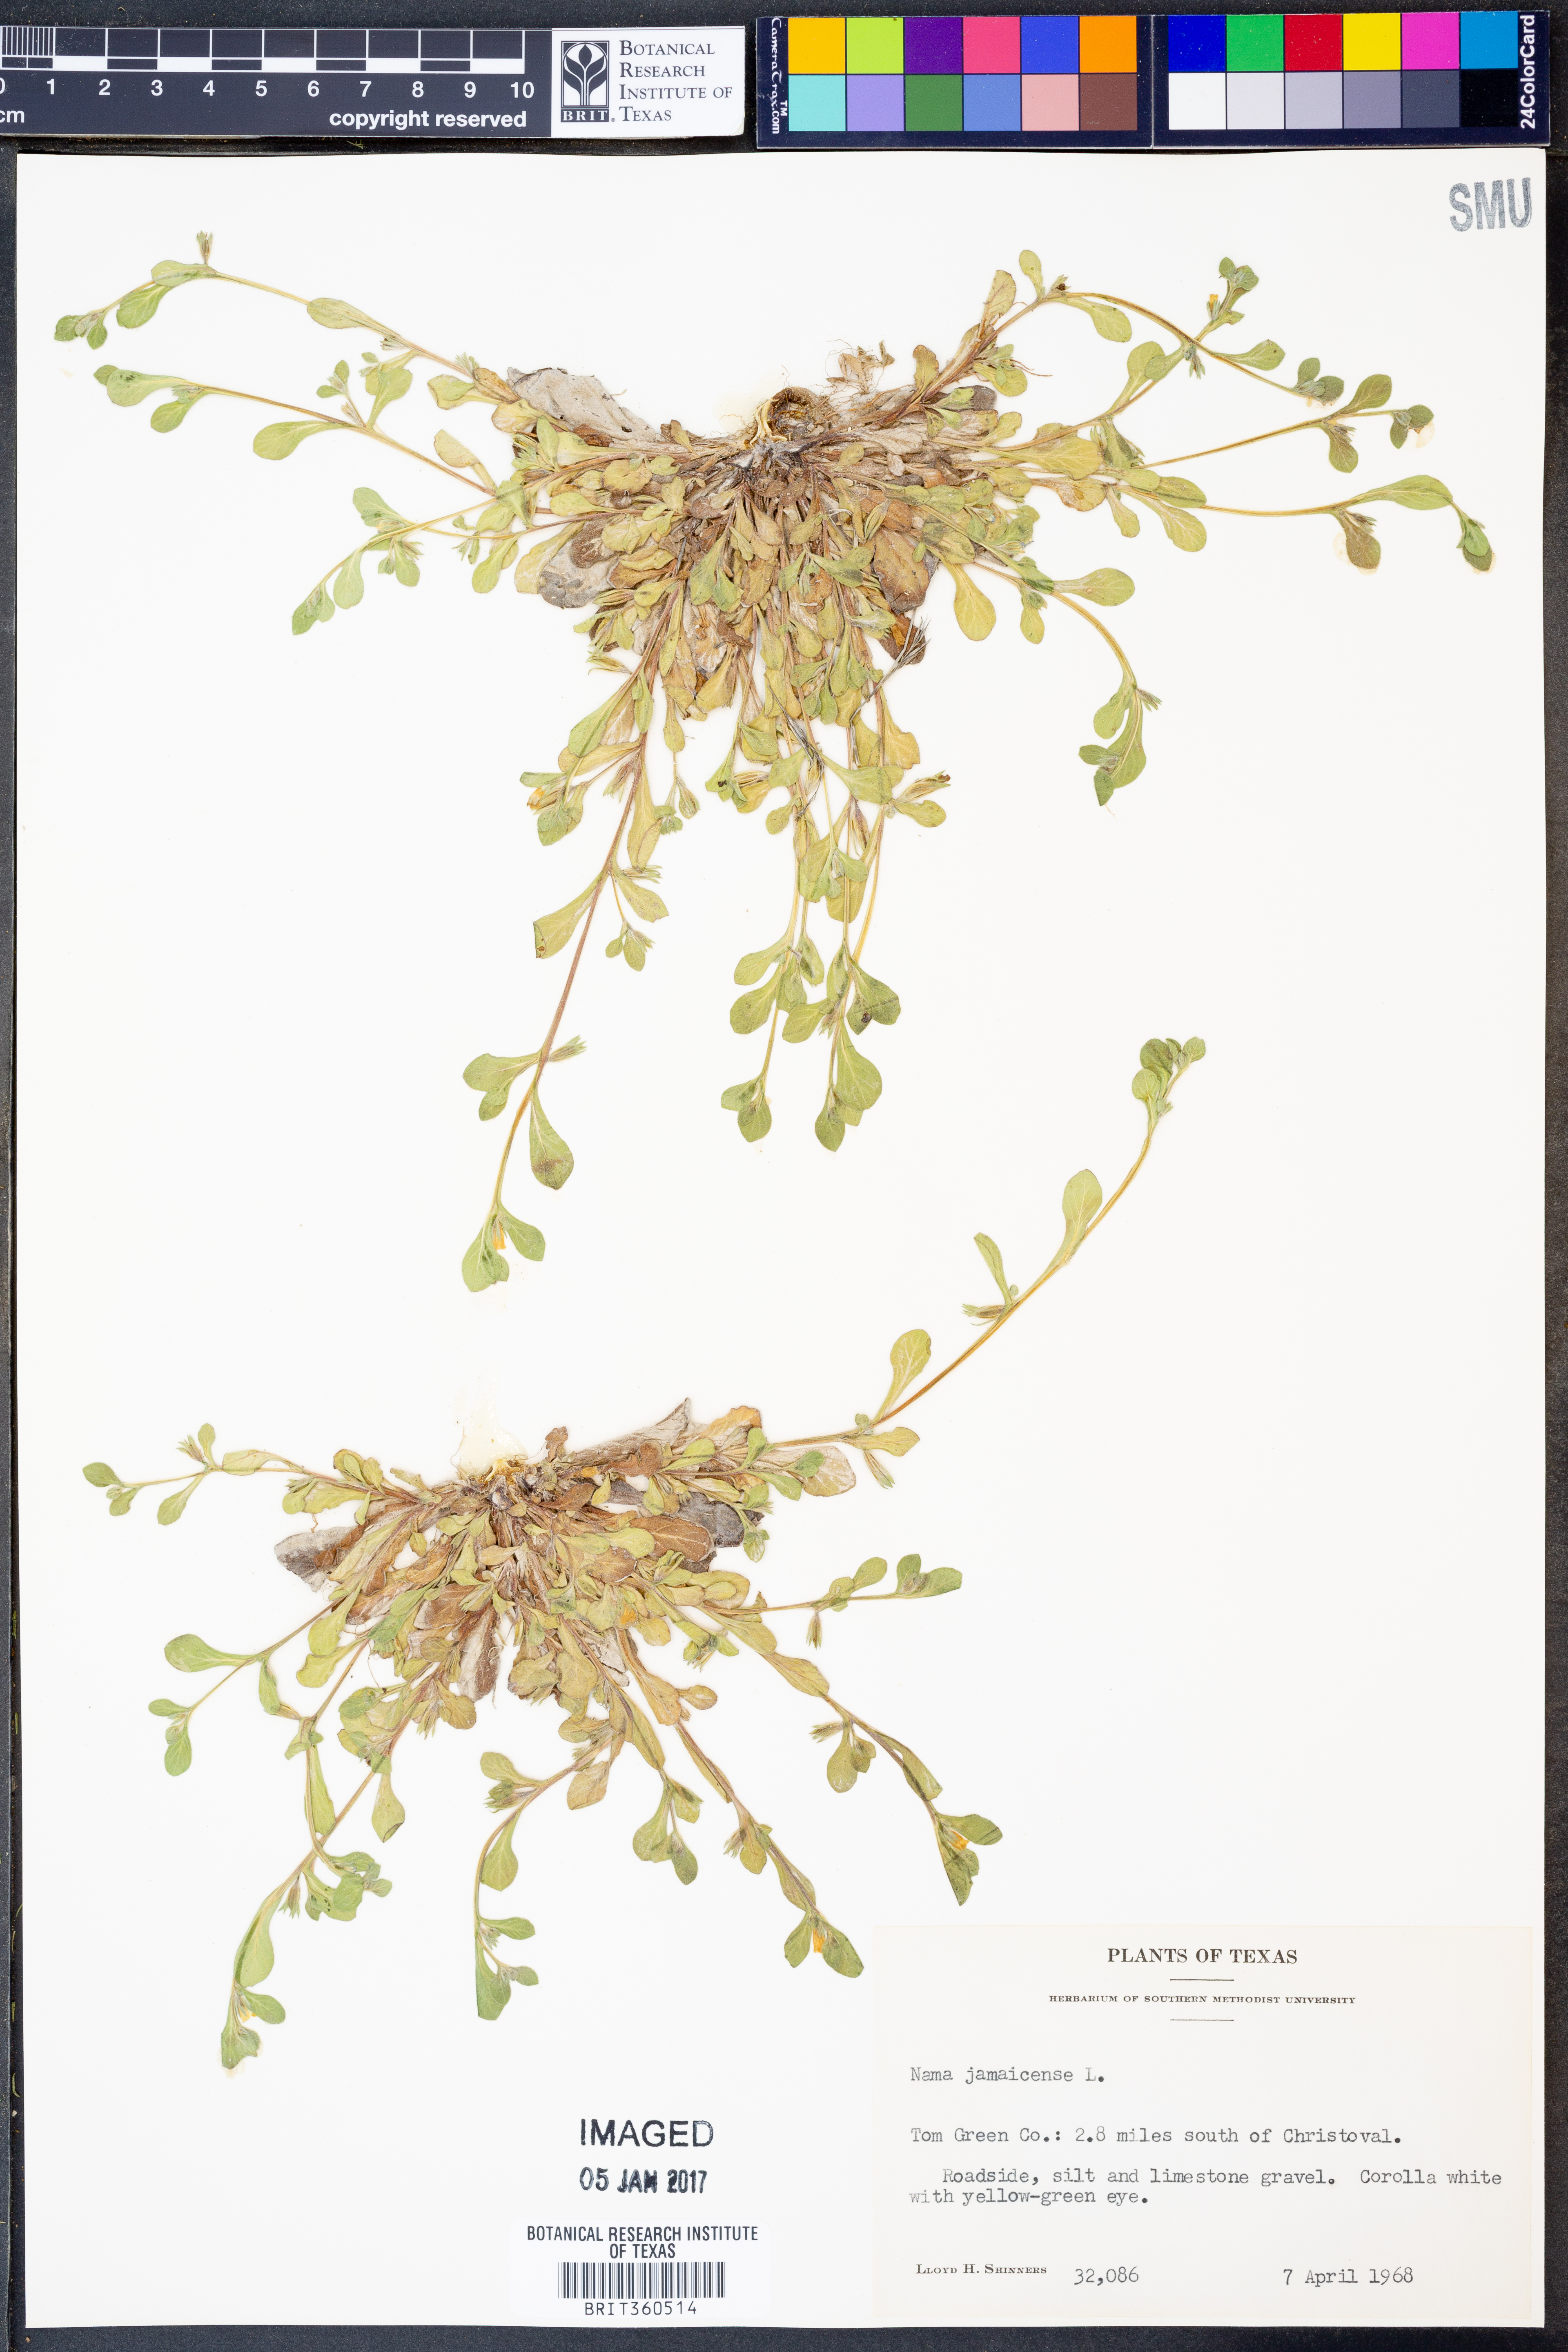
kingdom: Plantae
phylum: Tracheophyta
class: Magnoliopsida
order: Boraginales
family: Namaceae
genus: Nama
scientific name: Nama jamaicense
